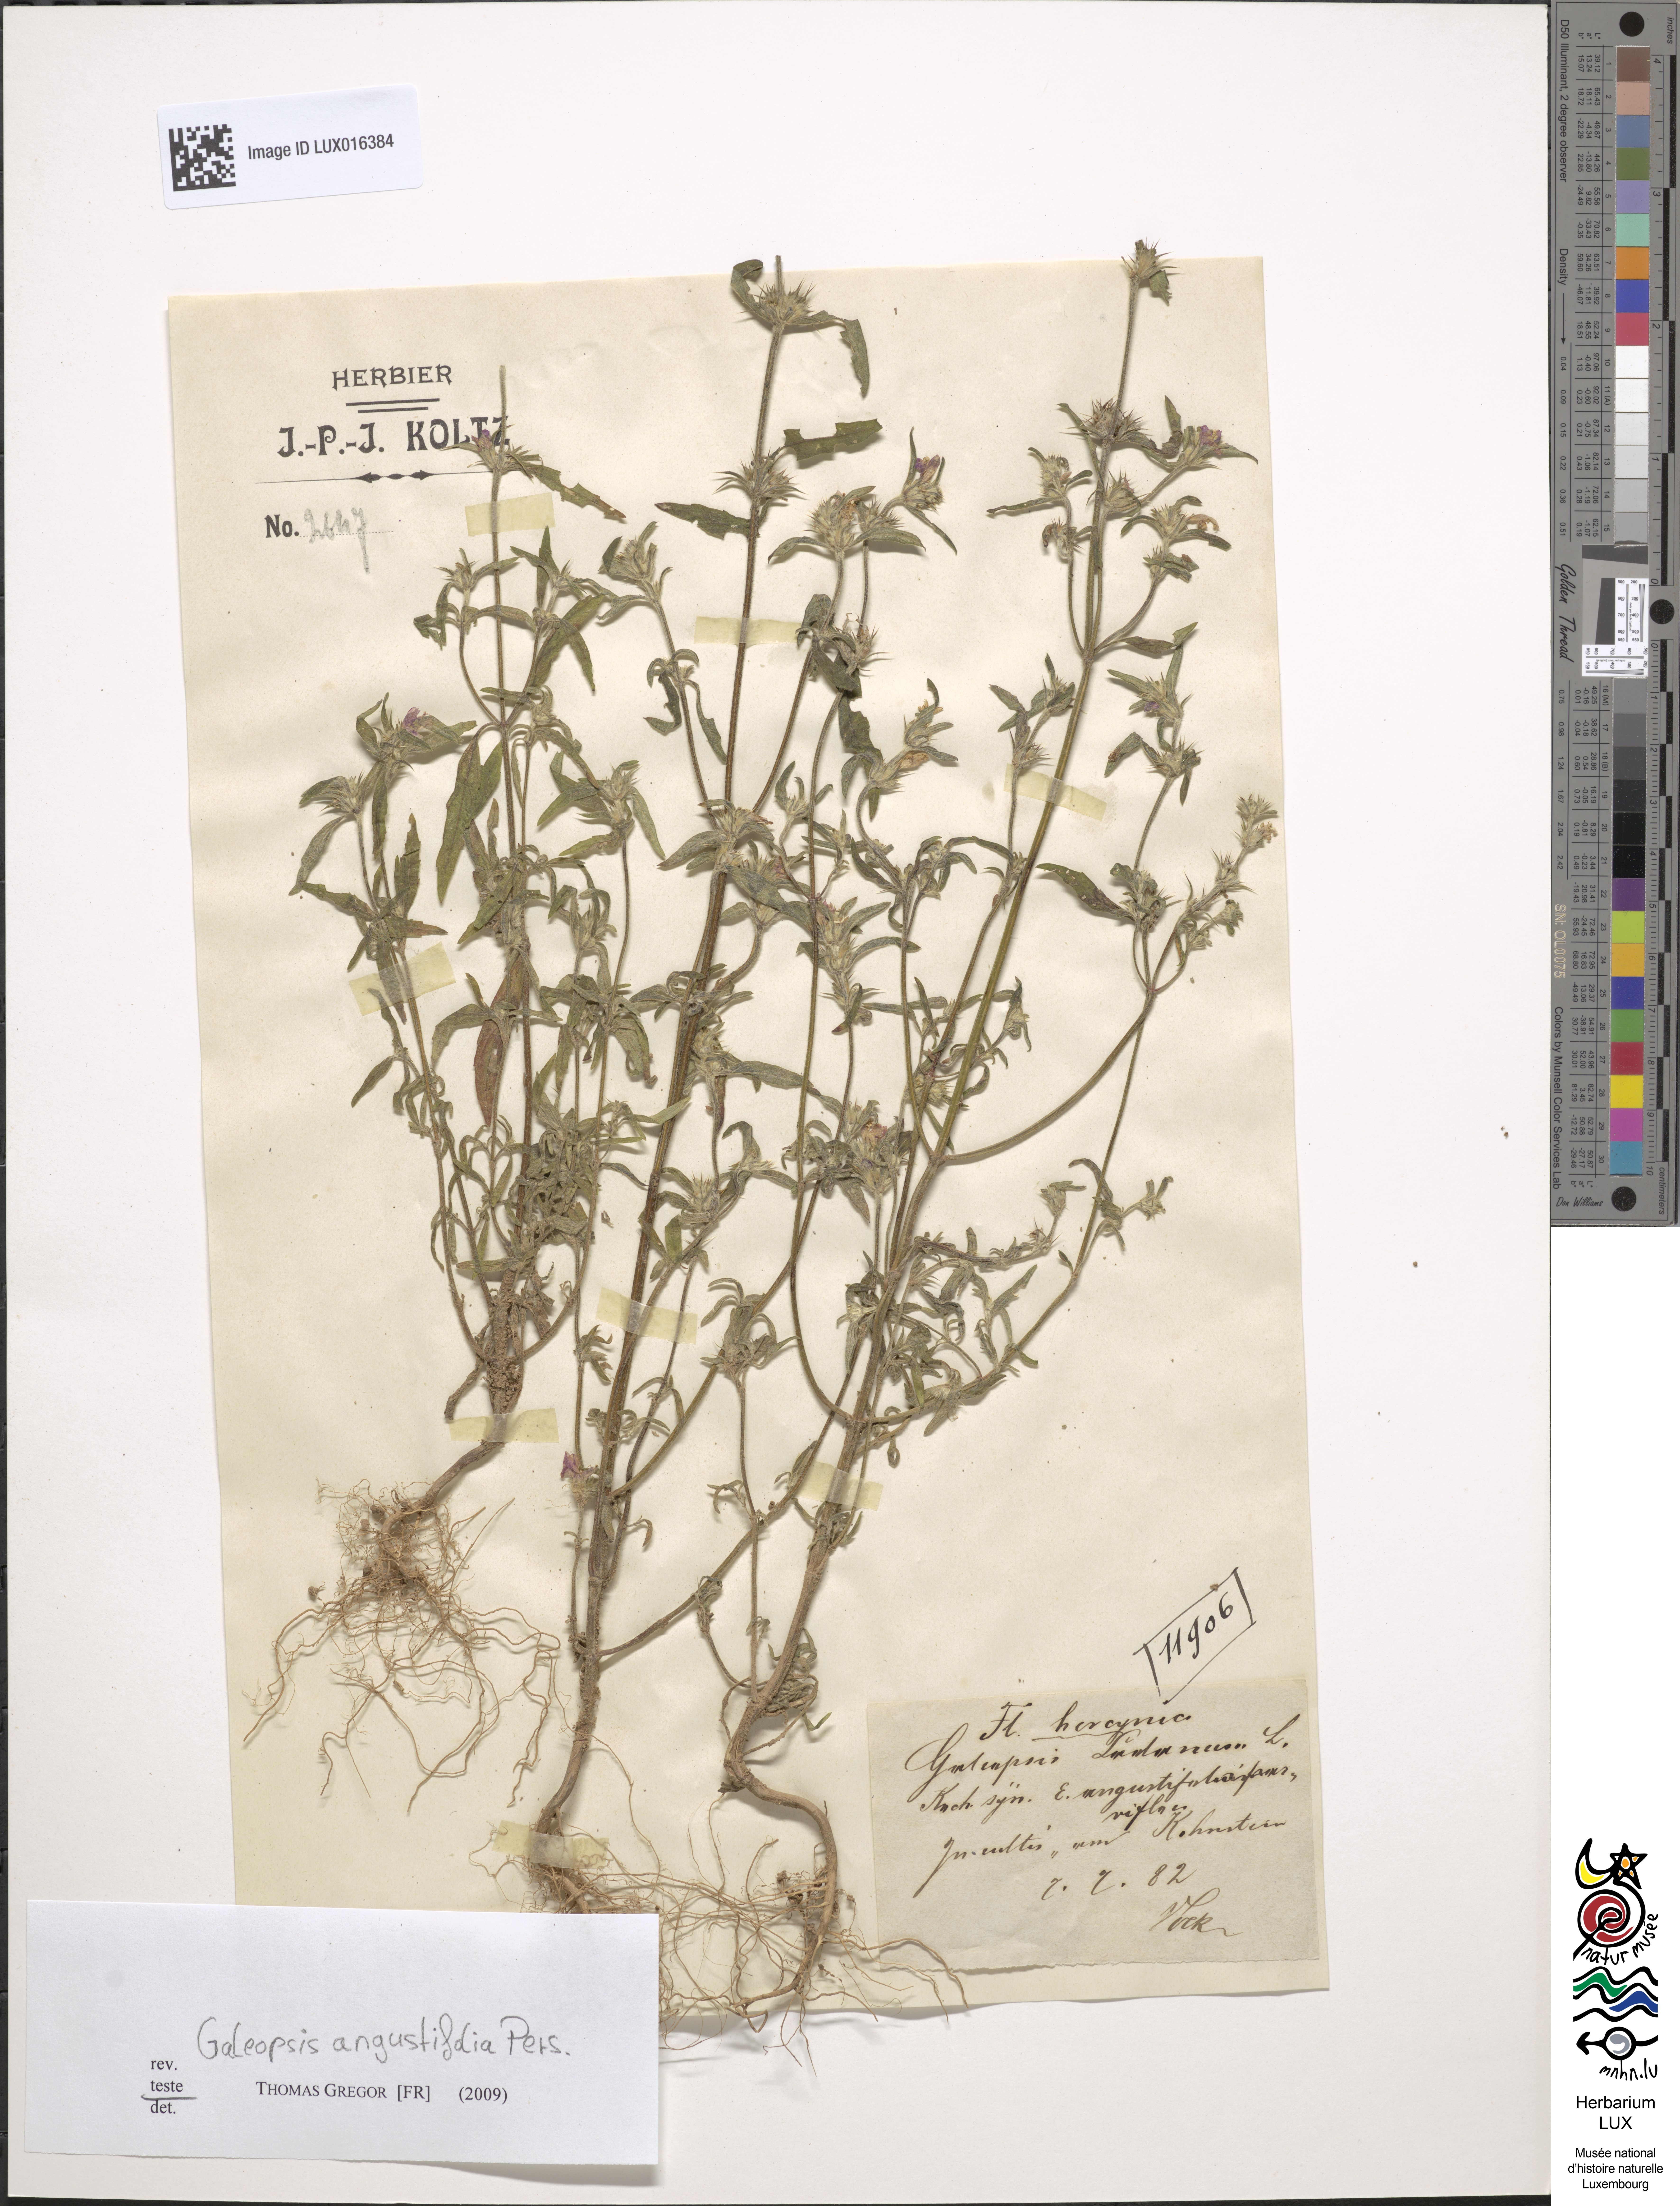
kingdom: Plantae
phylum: Tracheophyta
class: Magnoliopsida
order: Lamiales
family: Lamiaceae
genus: Galeopsis
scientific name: Galeopsis angustifolia
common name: Red hemp-nettle
